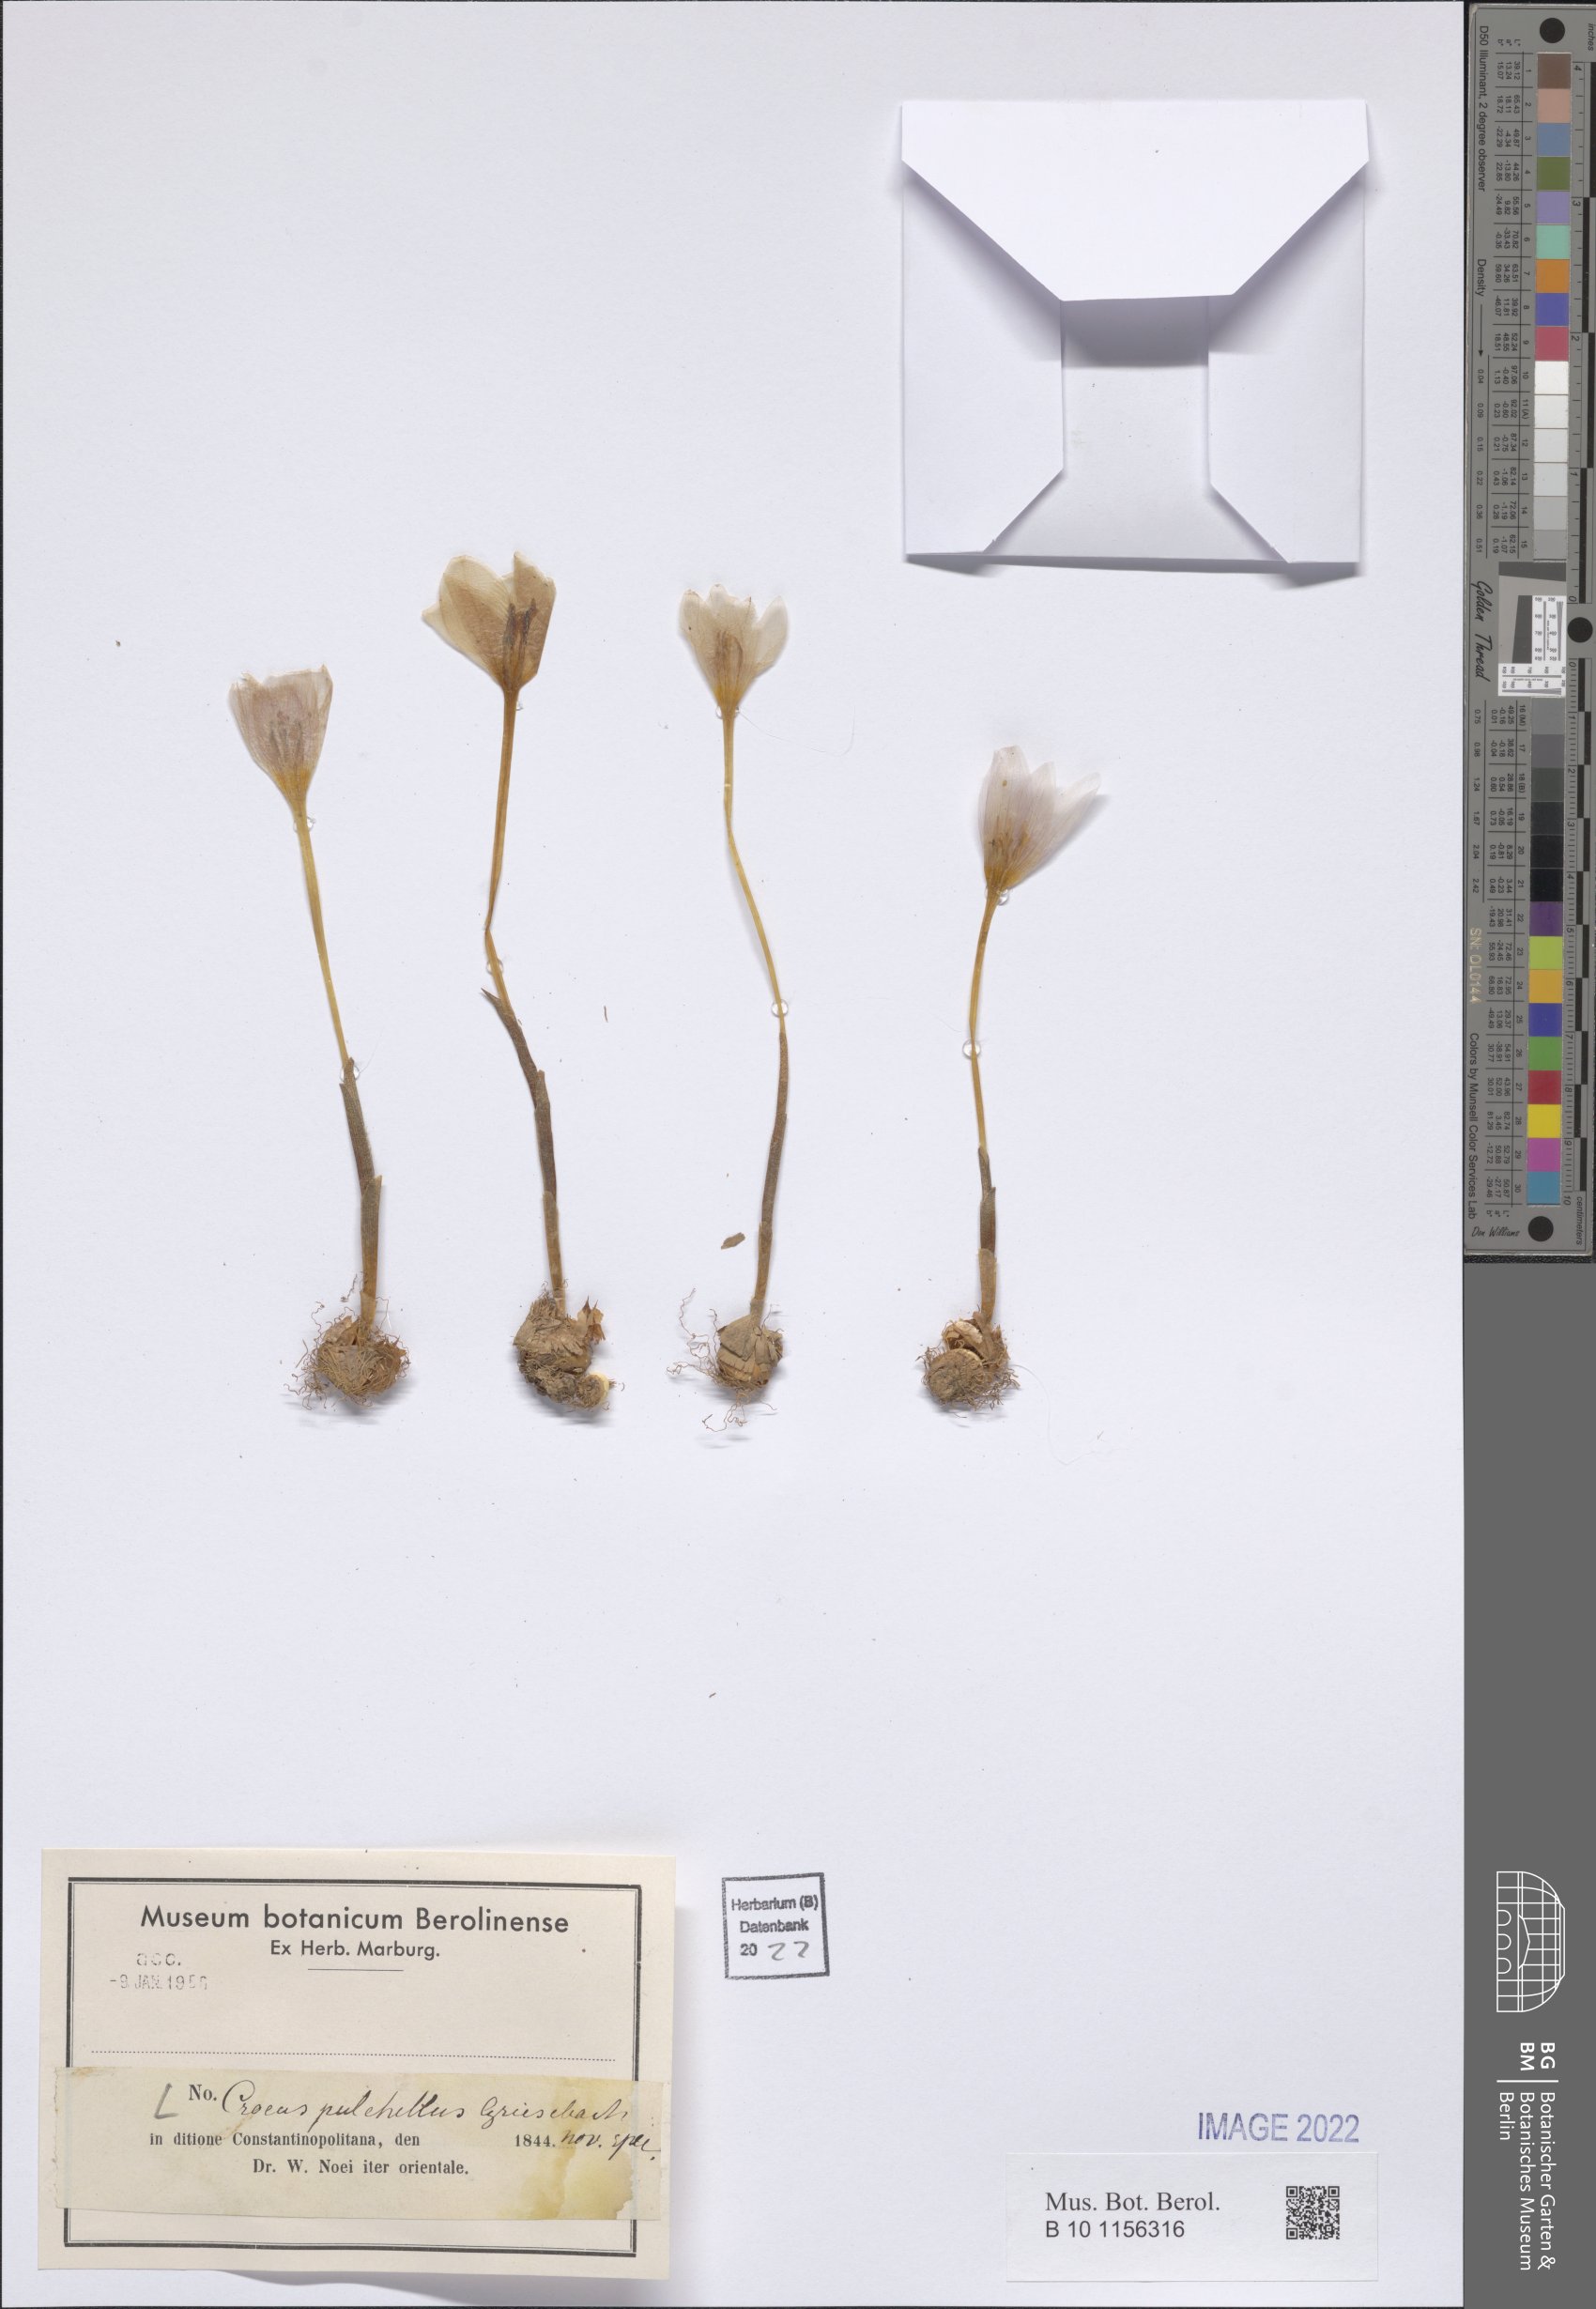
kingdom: Plantae
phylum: Tracheophyta
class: Liliopsida
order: Asparagales
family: Iridaceae
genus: Crocus
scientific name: Crocus pulchellus
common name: Hairy crocus
